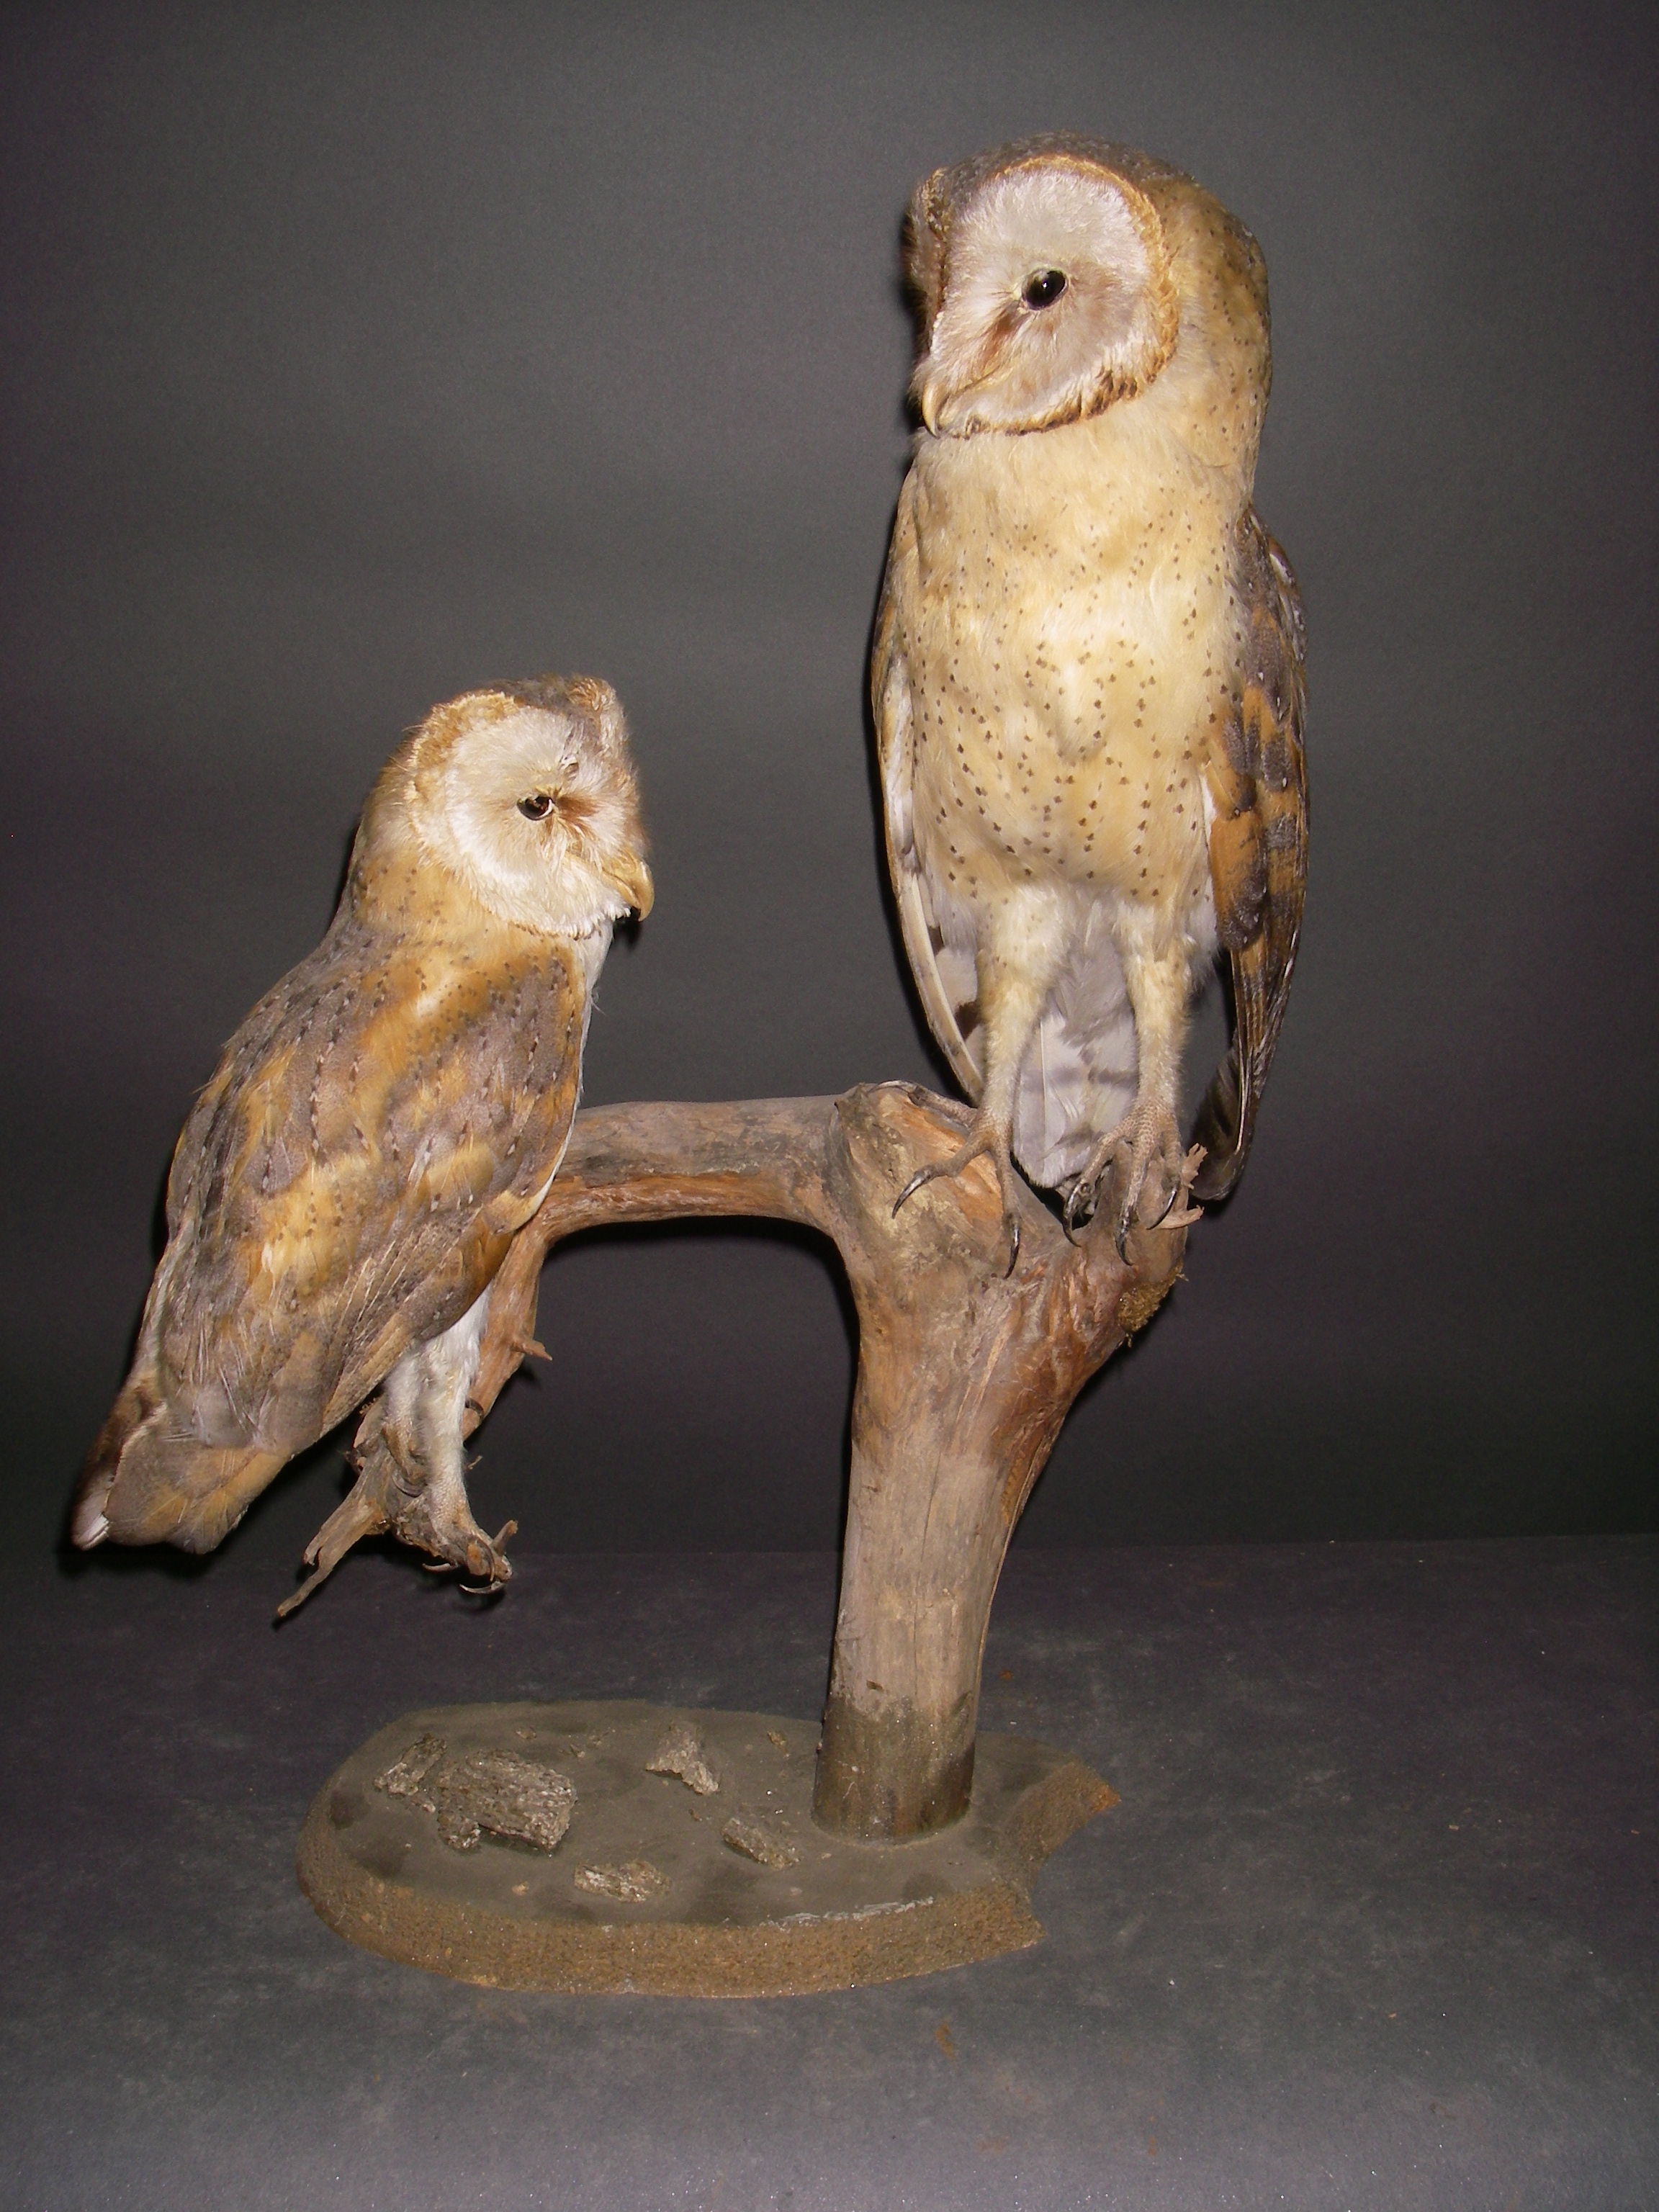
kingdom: Animalia
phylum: Chordata
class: Aves
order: Strigiformes
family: Tytonidae
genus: Tyto
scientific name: Tyto alba
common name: Barn owl
